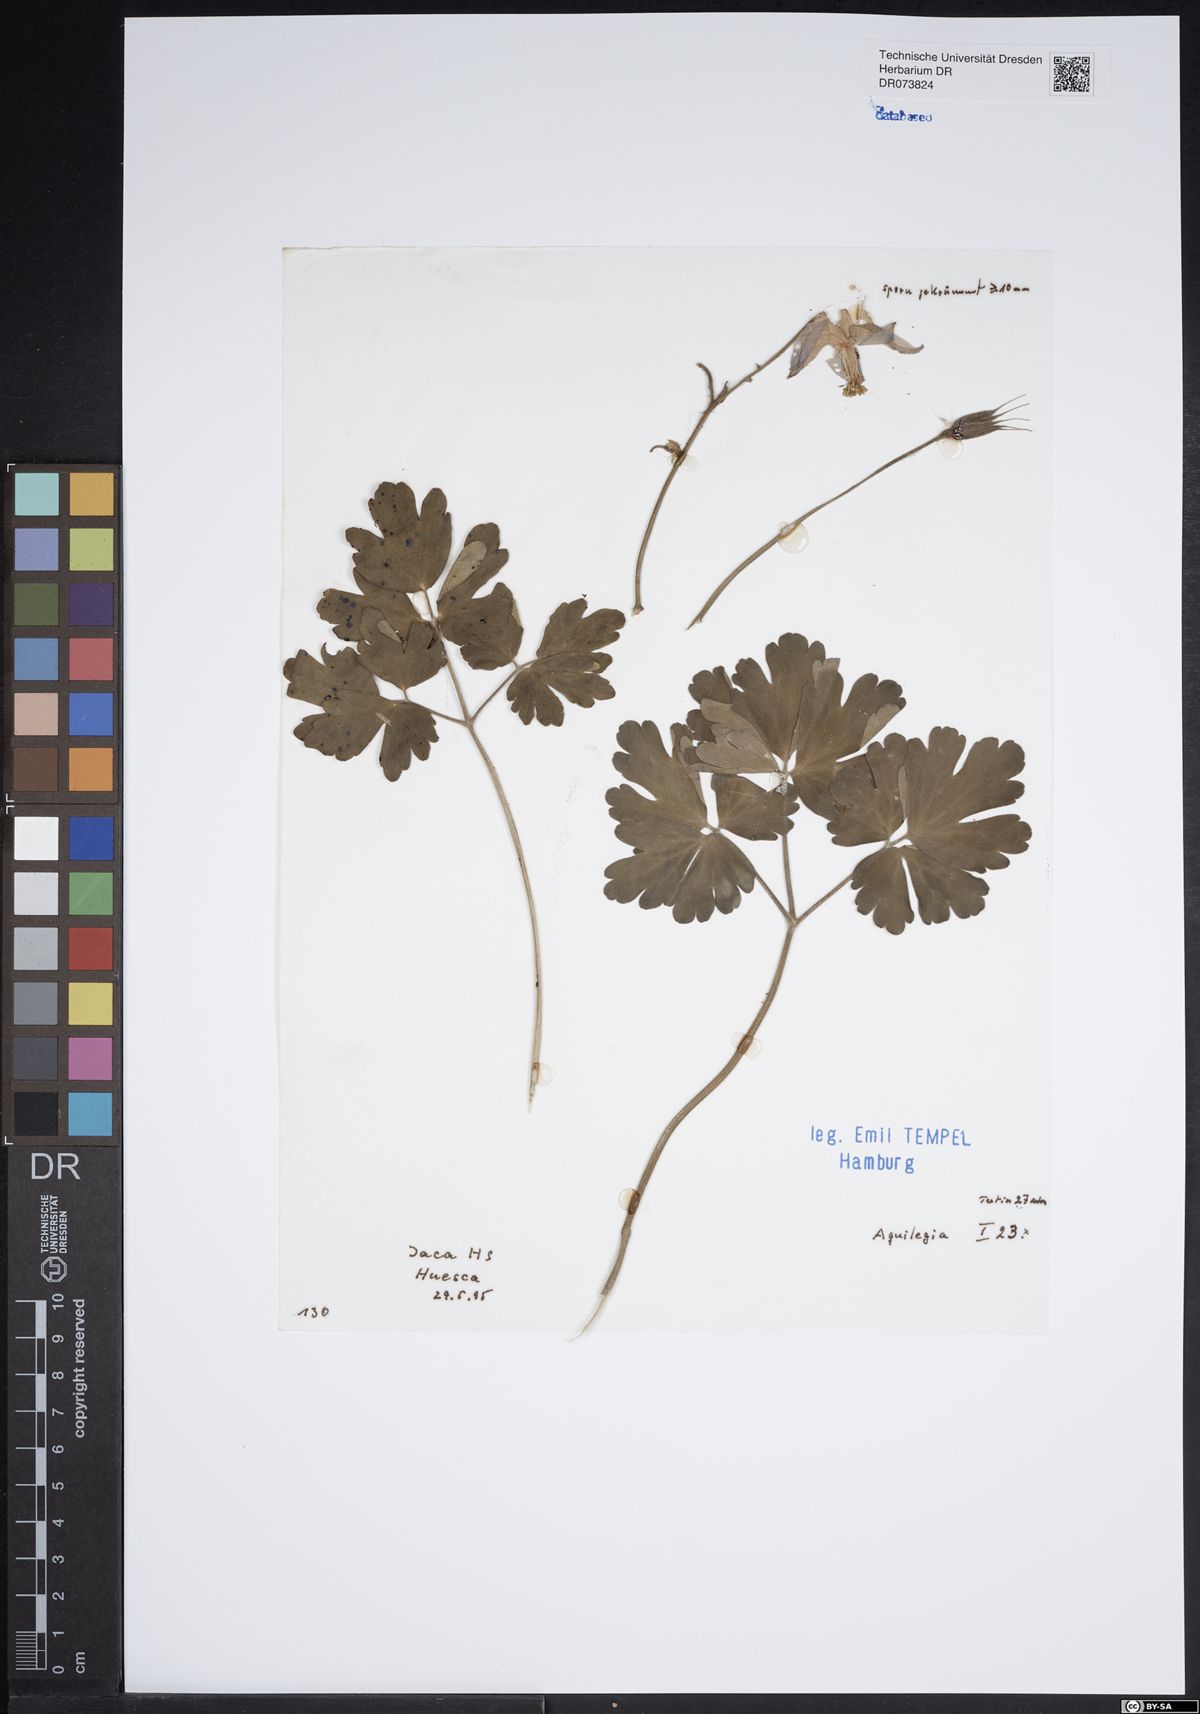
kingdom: Plantae
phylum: Tracheophyta
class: Magnoliopsida
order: Ranunculales
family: Ranunculaceae
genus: Aquilegia
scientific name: Aquilegia
